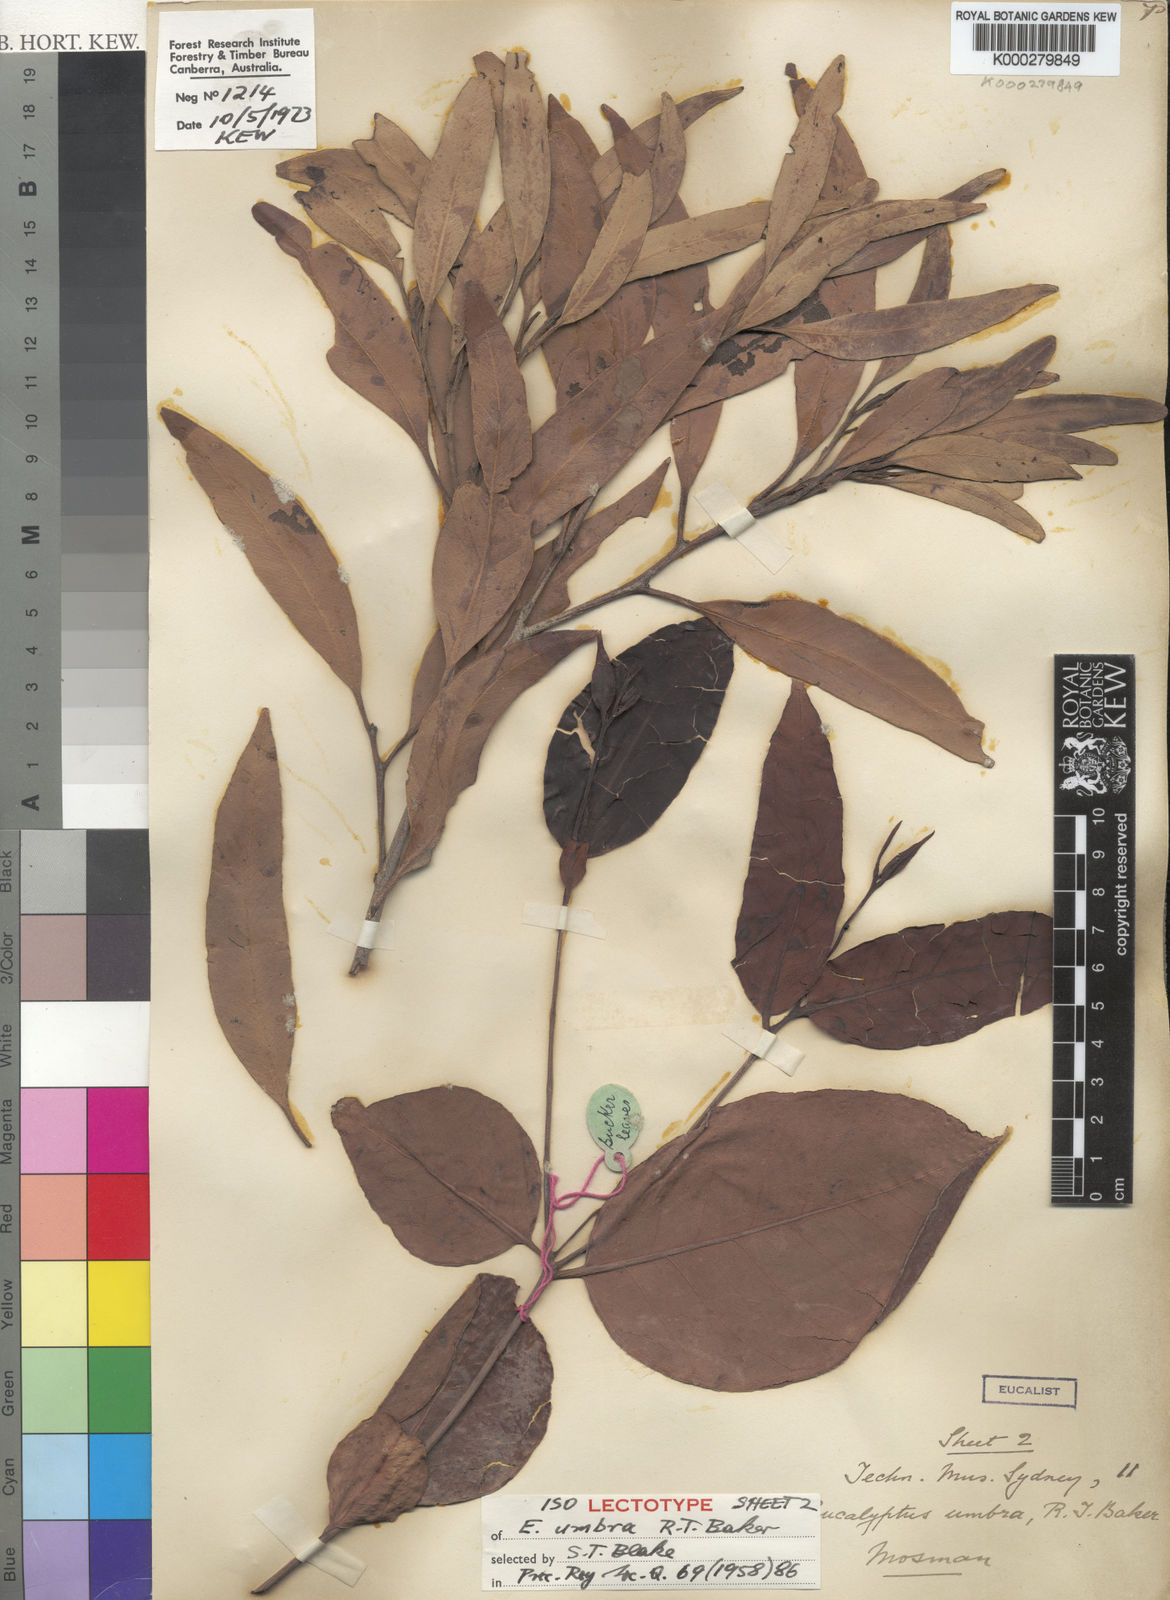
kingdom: Plantae
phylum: Tracheophyta
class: Magnoliopsida
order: Myrtales
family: Myrtaceae
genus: Eucalyptus
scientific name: Eucalyptus umbra
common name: White-mahogany
